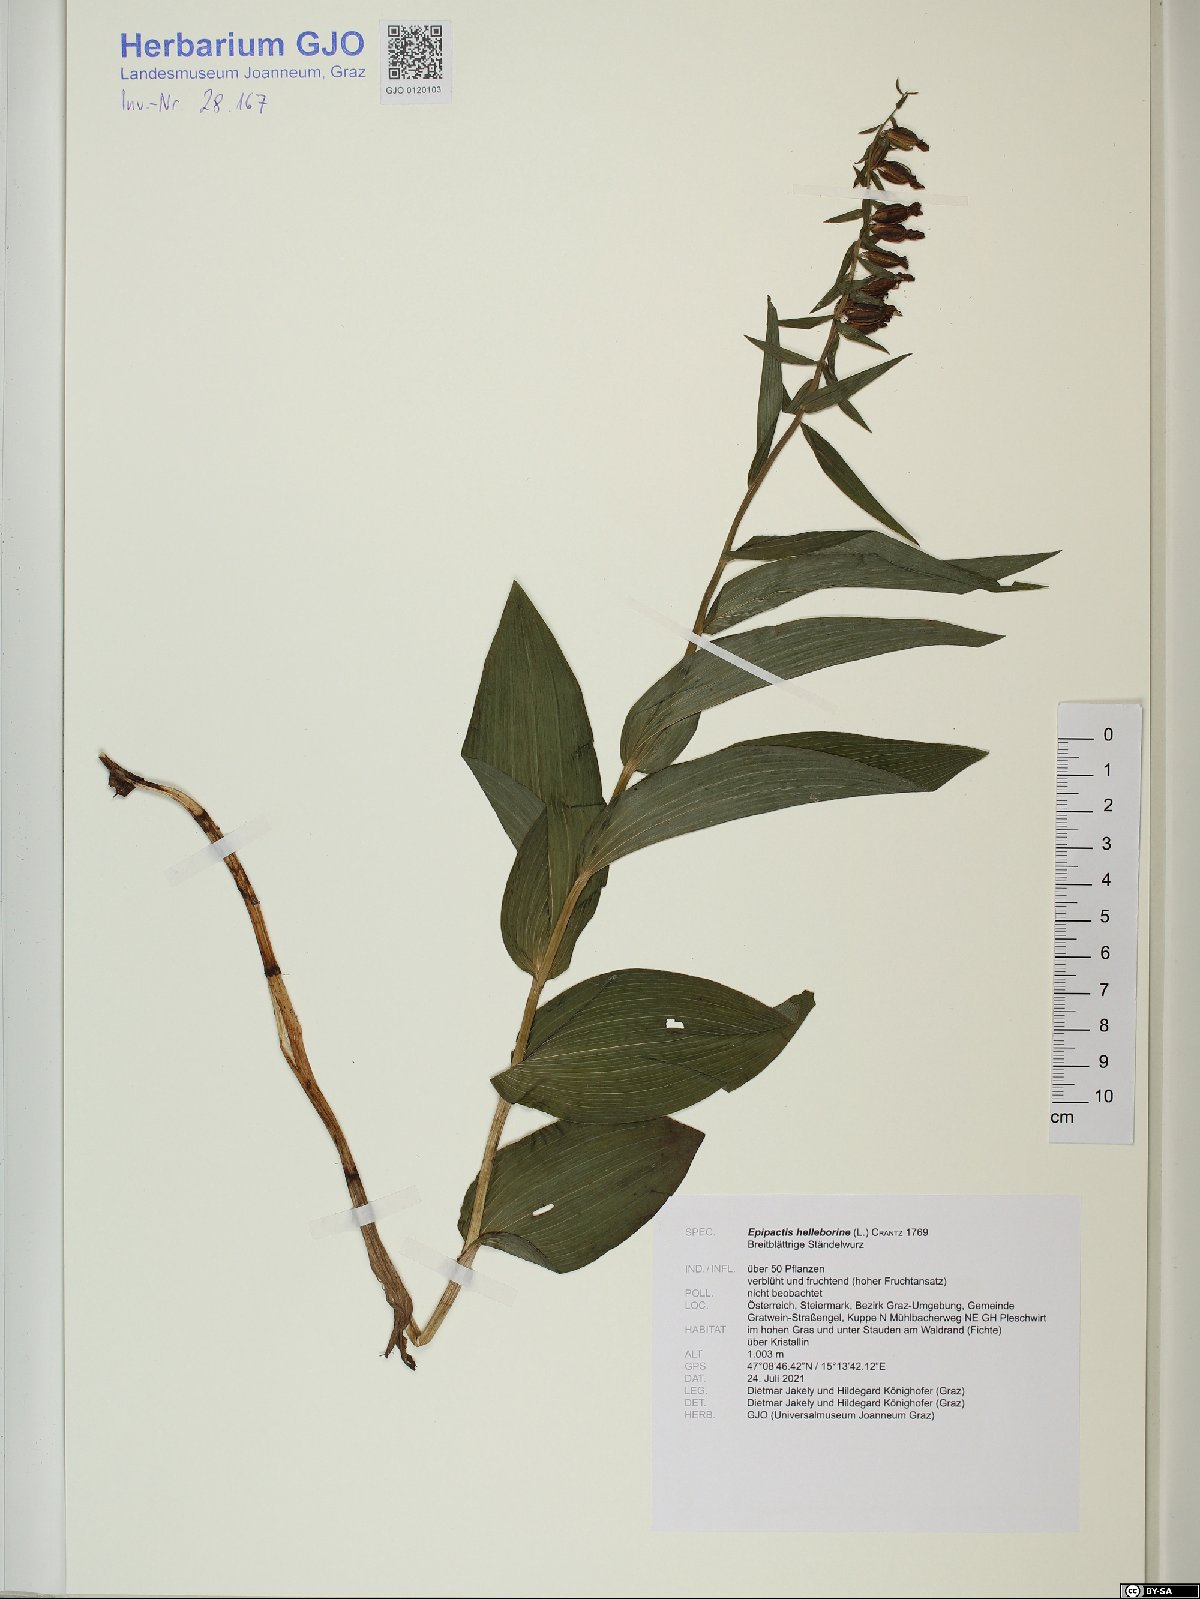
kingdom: Plantae
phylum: Tracheophyta
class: Liliopsida
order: Asparagales
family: Orchidaceae
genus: Epipactis
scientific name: Epipactis helleborine
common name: Broad-leaved helleborine
